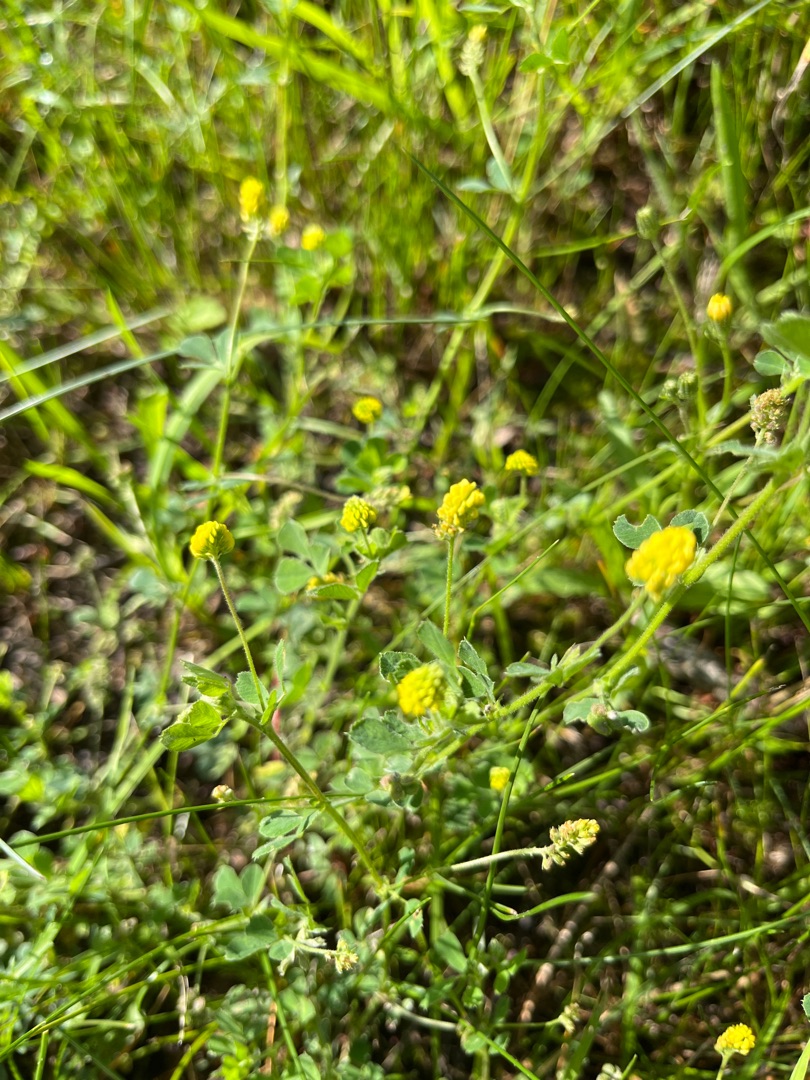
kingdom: Plantae
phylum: Tracheophyta
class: Magnoliopsida
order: Fabales
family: Fabaceae
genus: Medicago
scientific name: Medicago lupulina
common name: Humle-sneglebælg
